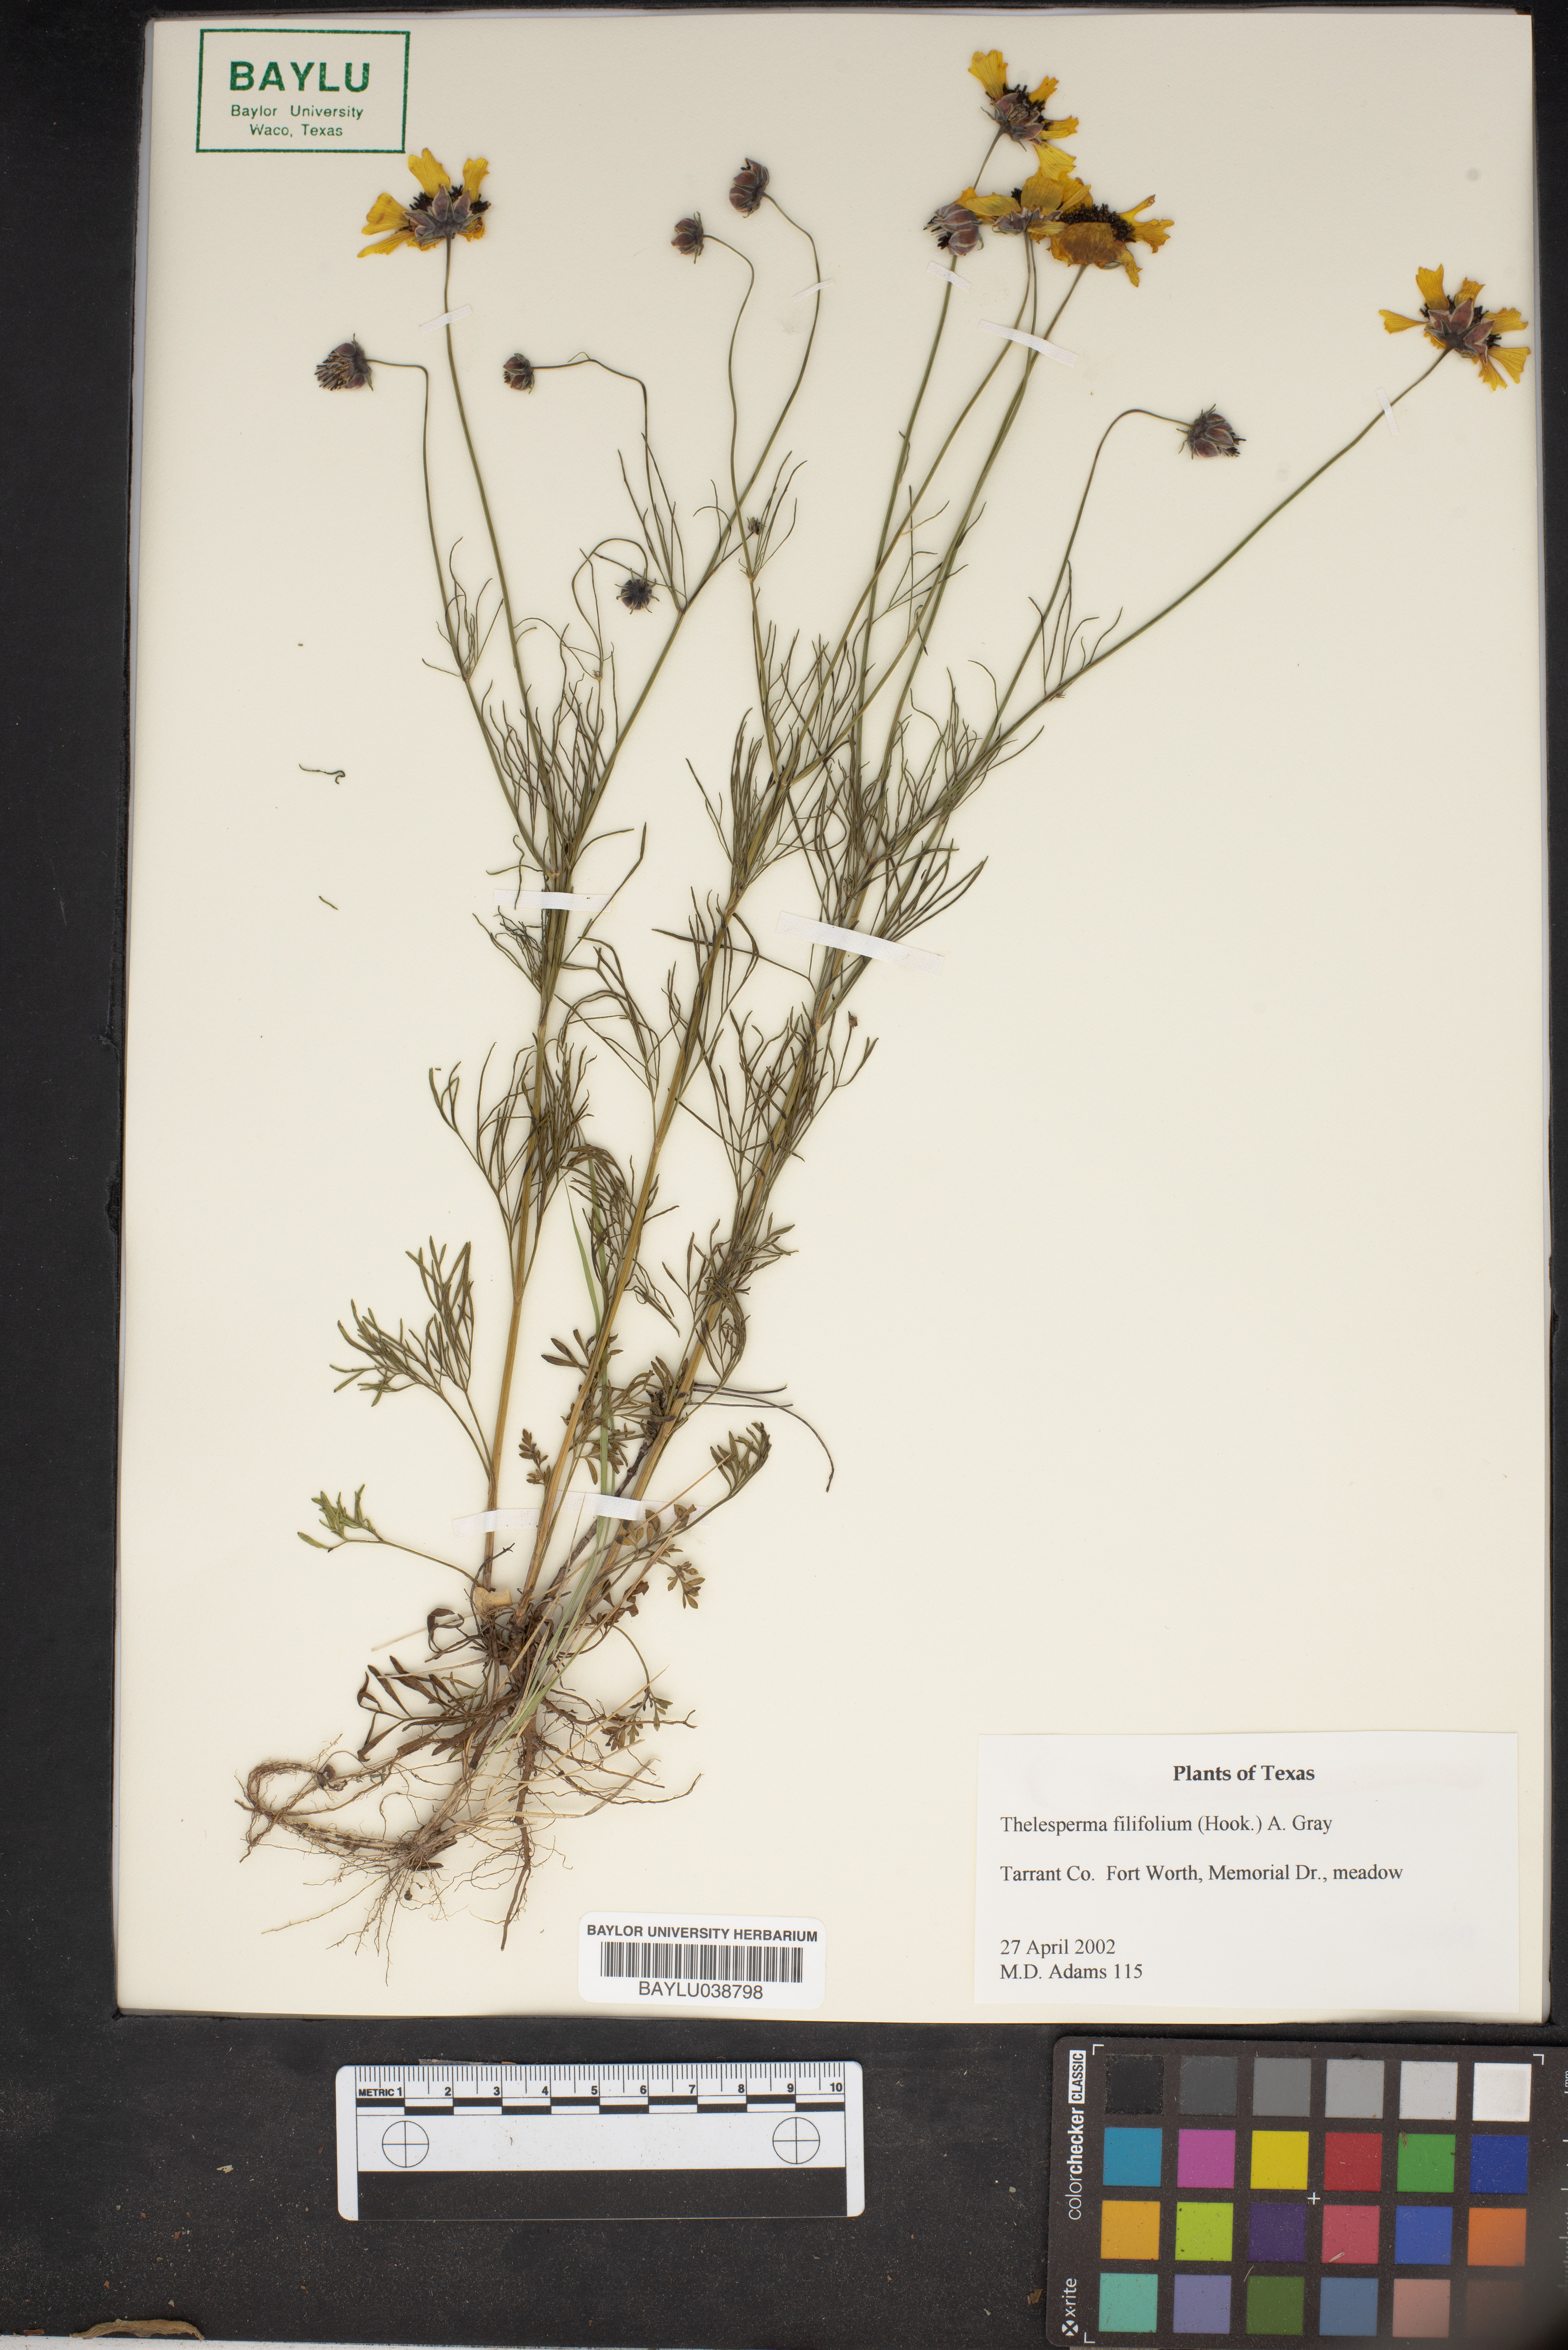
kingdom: Plantae
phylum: Tracheophyta
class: Magnoliopsida
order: Asterales
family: Asteraceae
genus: Thelesperma
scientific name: Thelesperma filifolium
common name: Stiff greenthread
